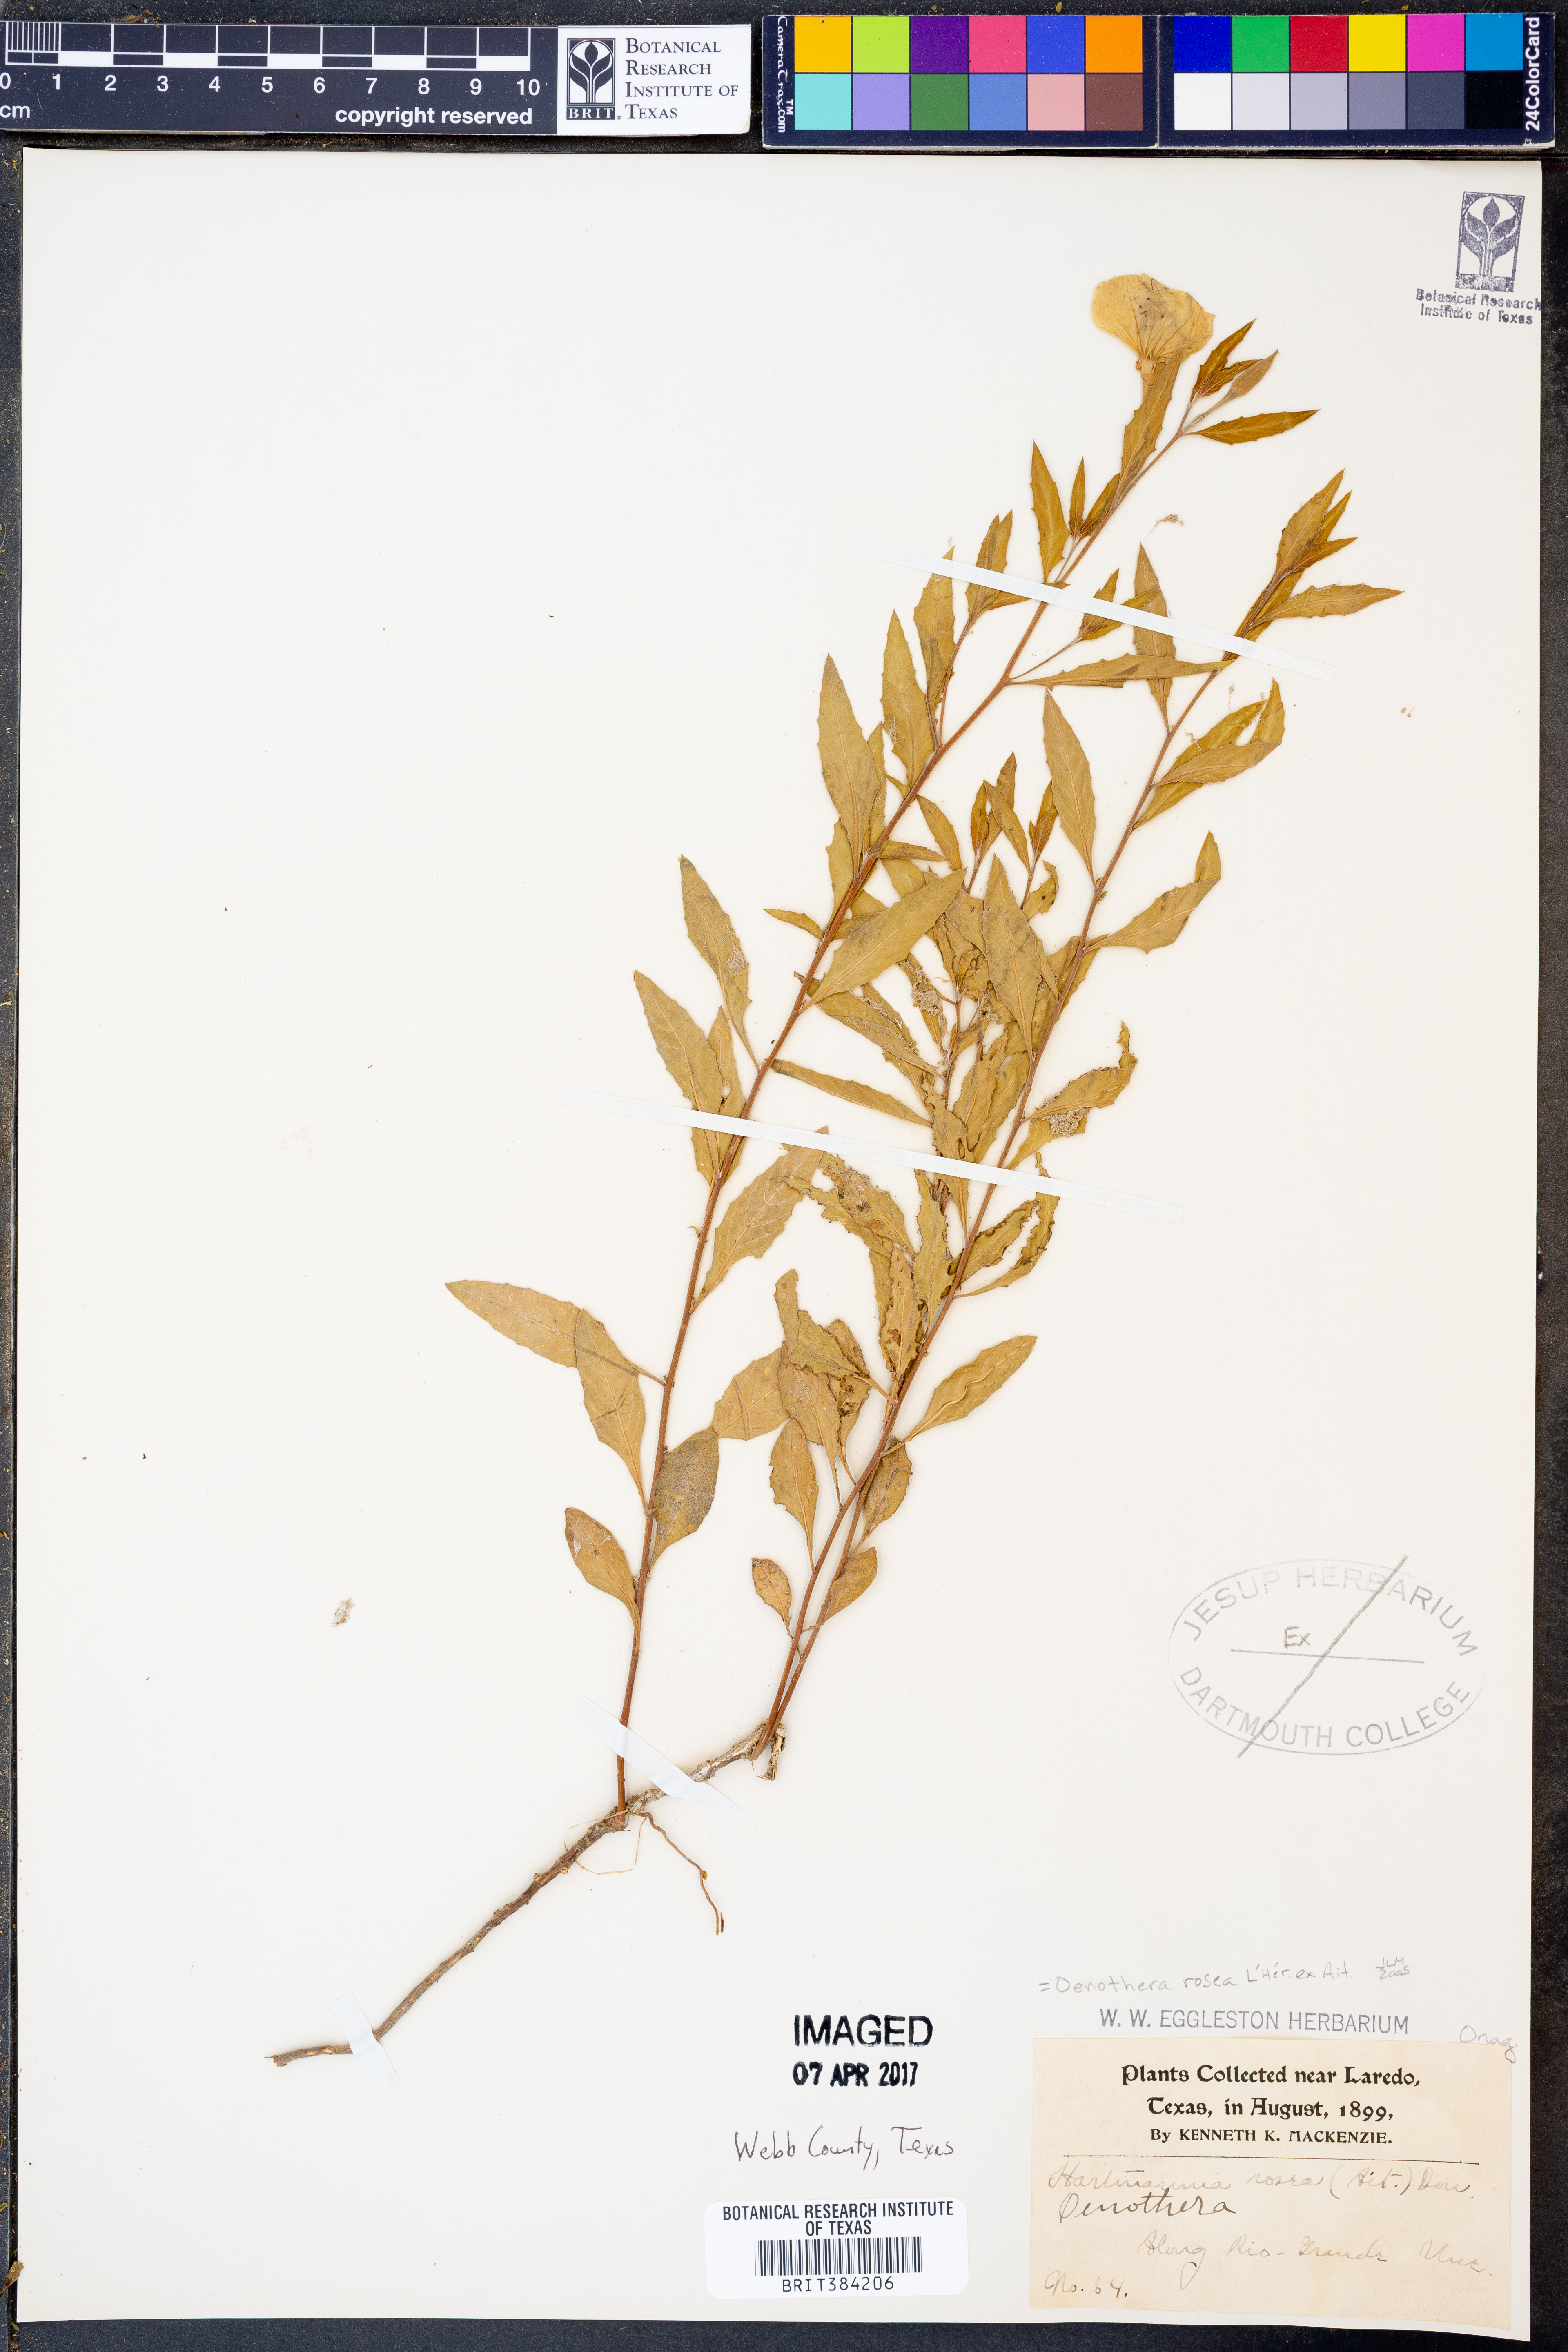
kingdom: Plantae
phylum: Tracheophyta
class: Magnoliopsida
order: Myrtales
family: Onagraceae
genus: Oenothera
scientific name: Oenothera rosea
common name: Rosy evening-primrose
